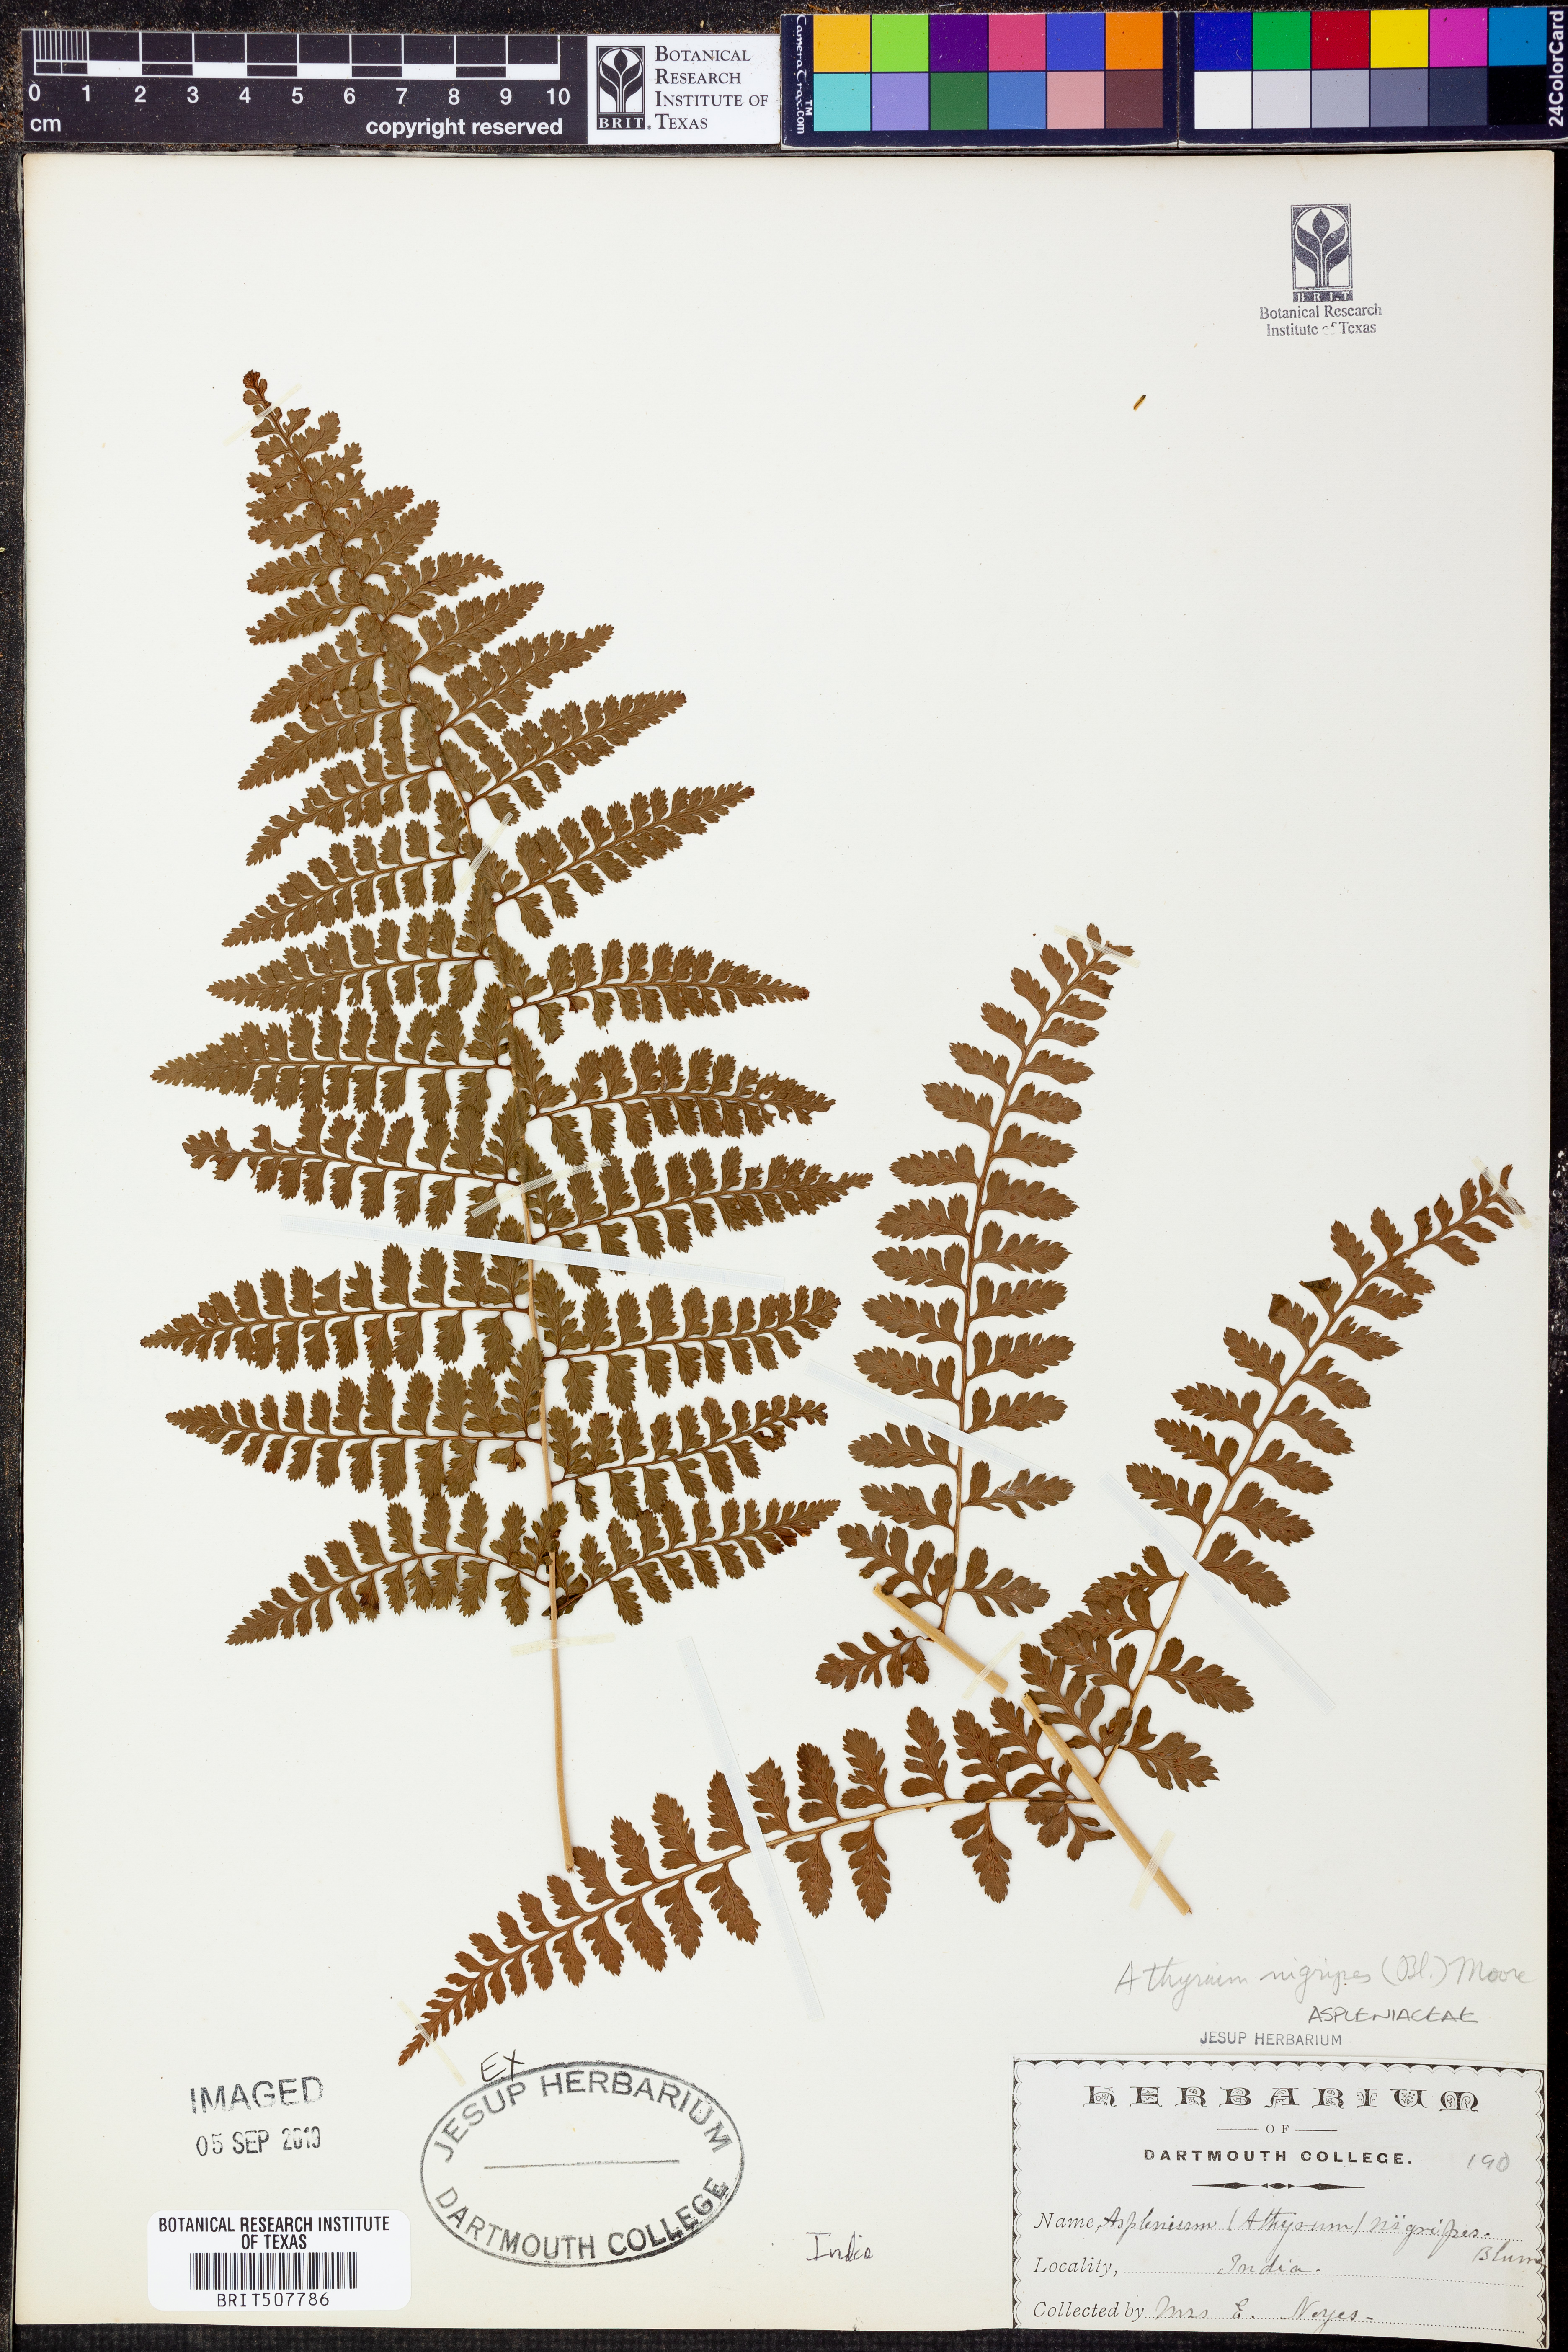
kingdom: Plantae
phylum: Tracheophyta
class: Polypodiopsida
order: Polypodiales
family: Athyriaceae
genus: Athyrium
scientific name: Athyrium strigillosum
